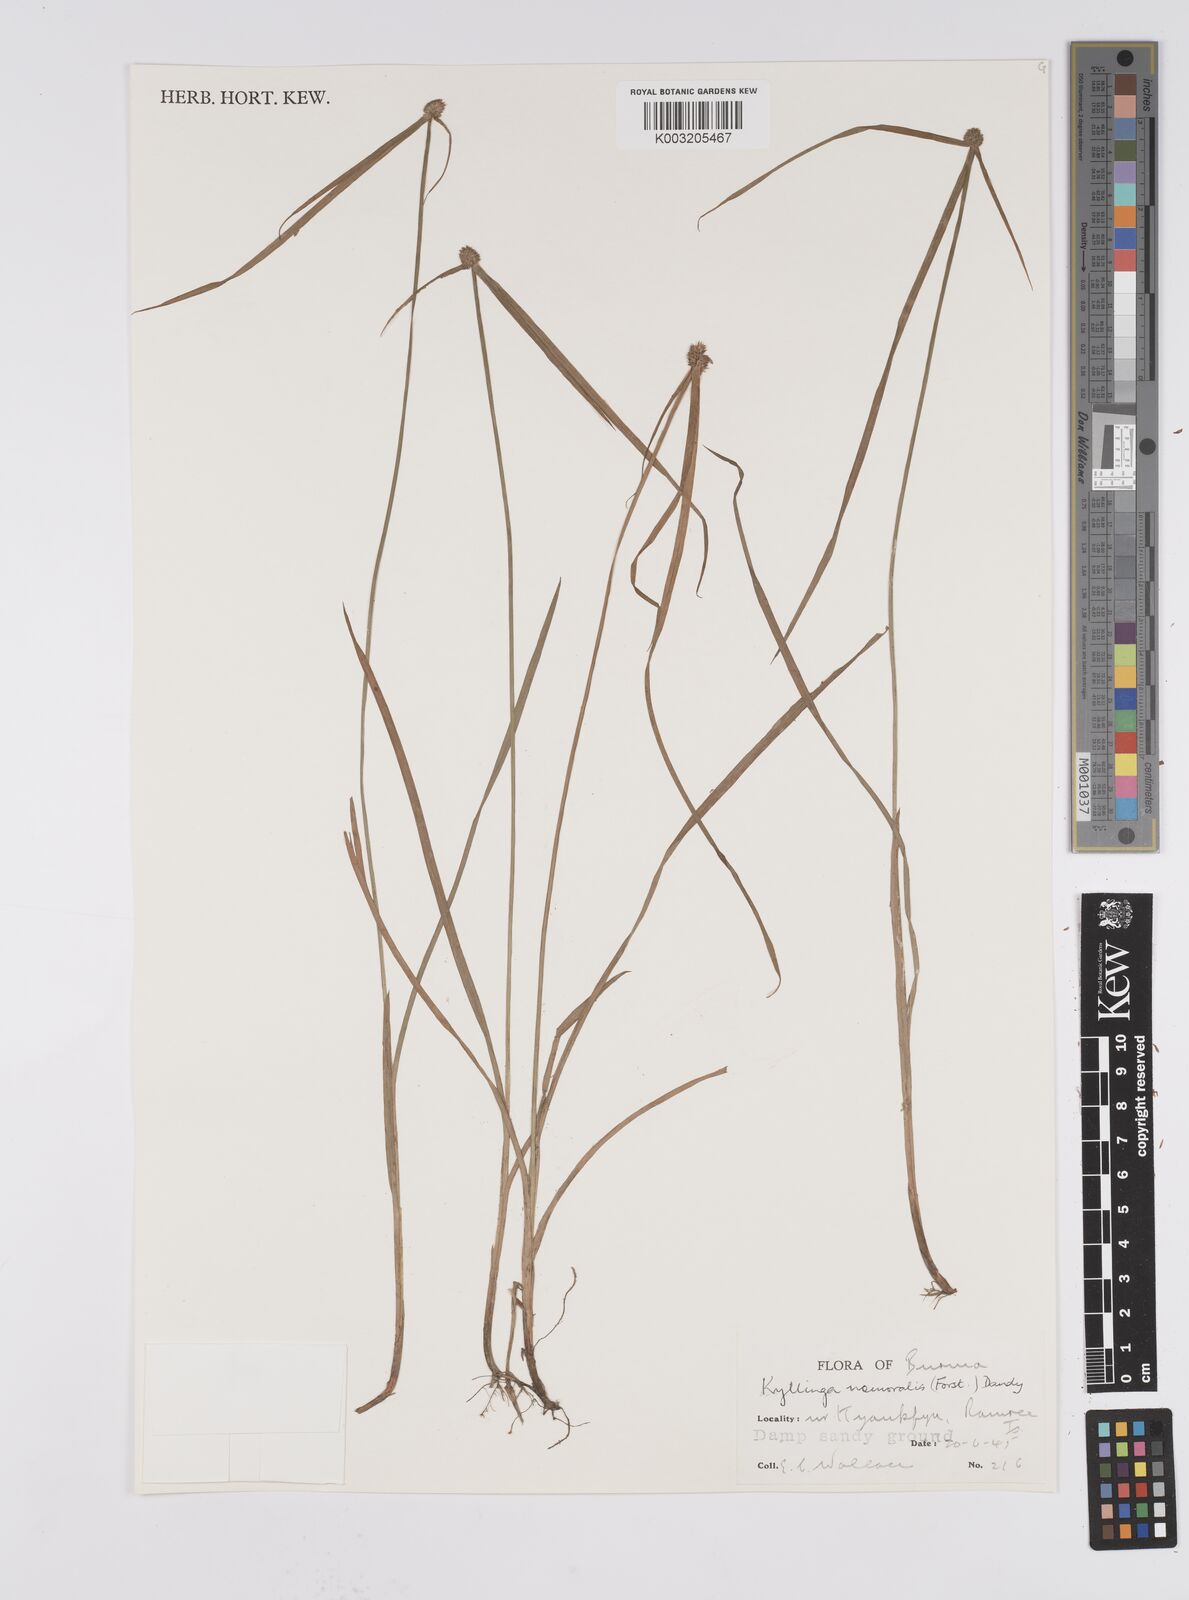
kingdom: Plantae
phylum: Tracheophyta
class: Liliopsida
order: Poales
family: Cyperaceae
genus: Cyperus
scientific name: Cyperus nemoralis
